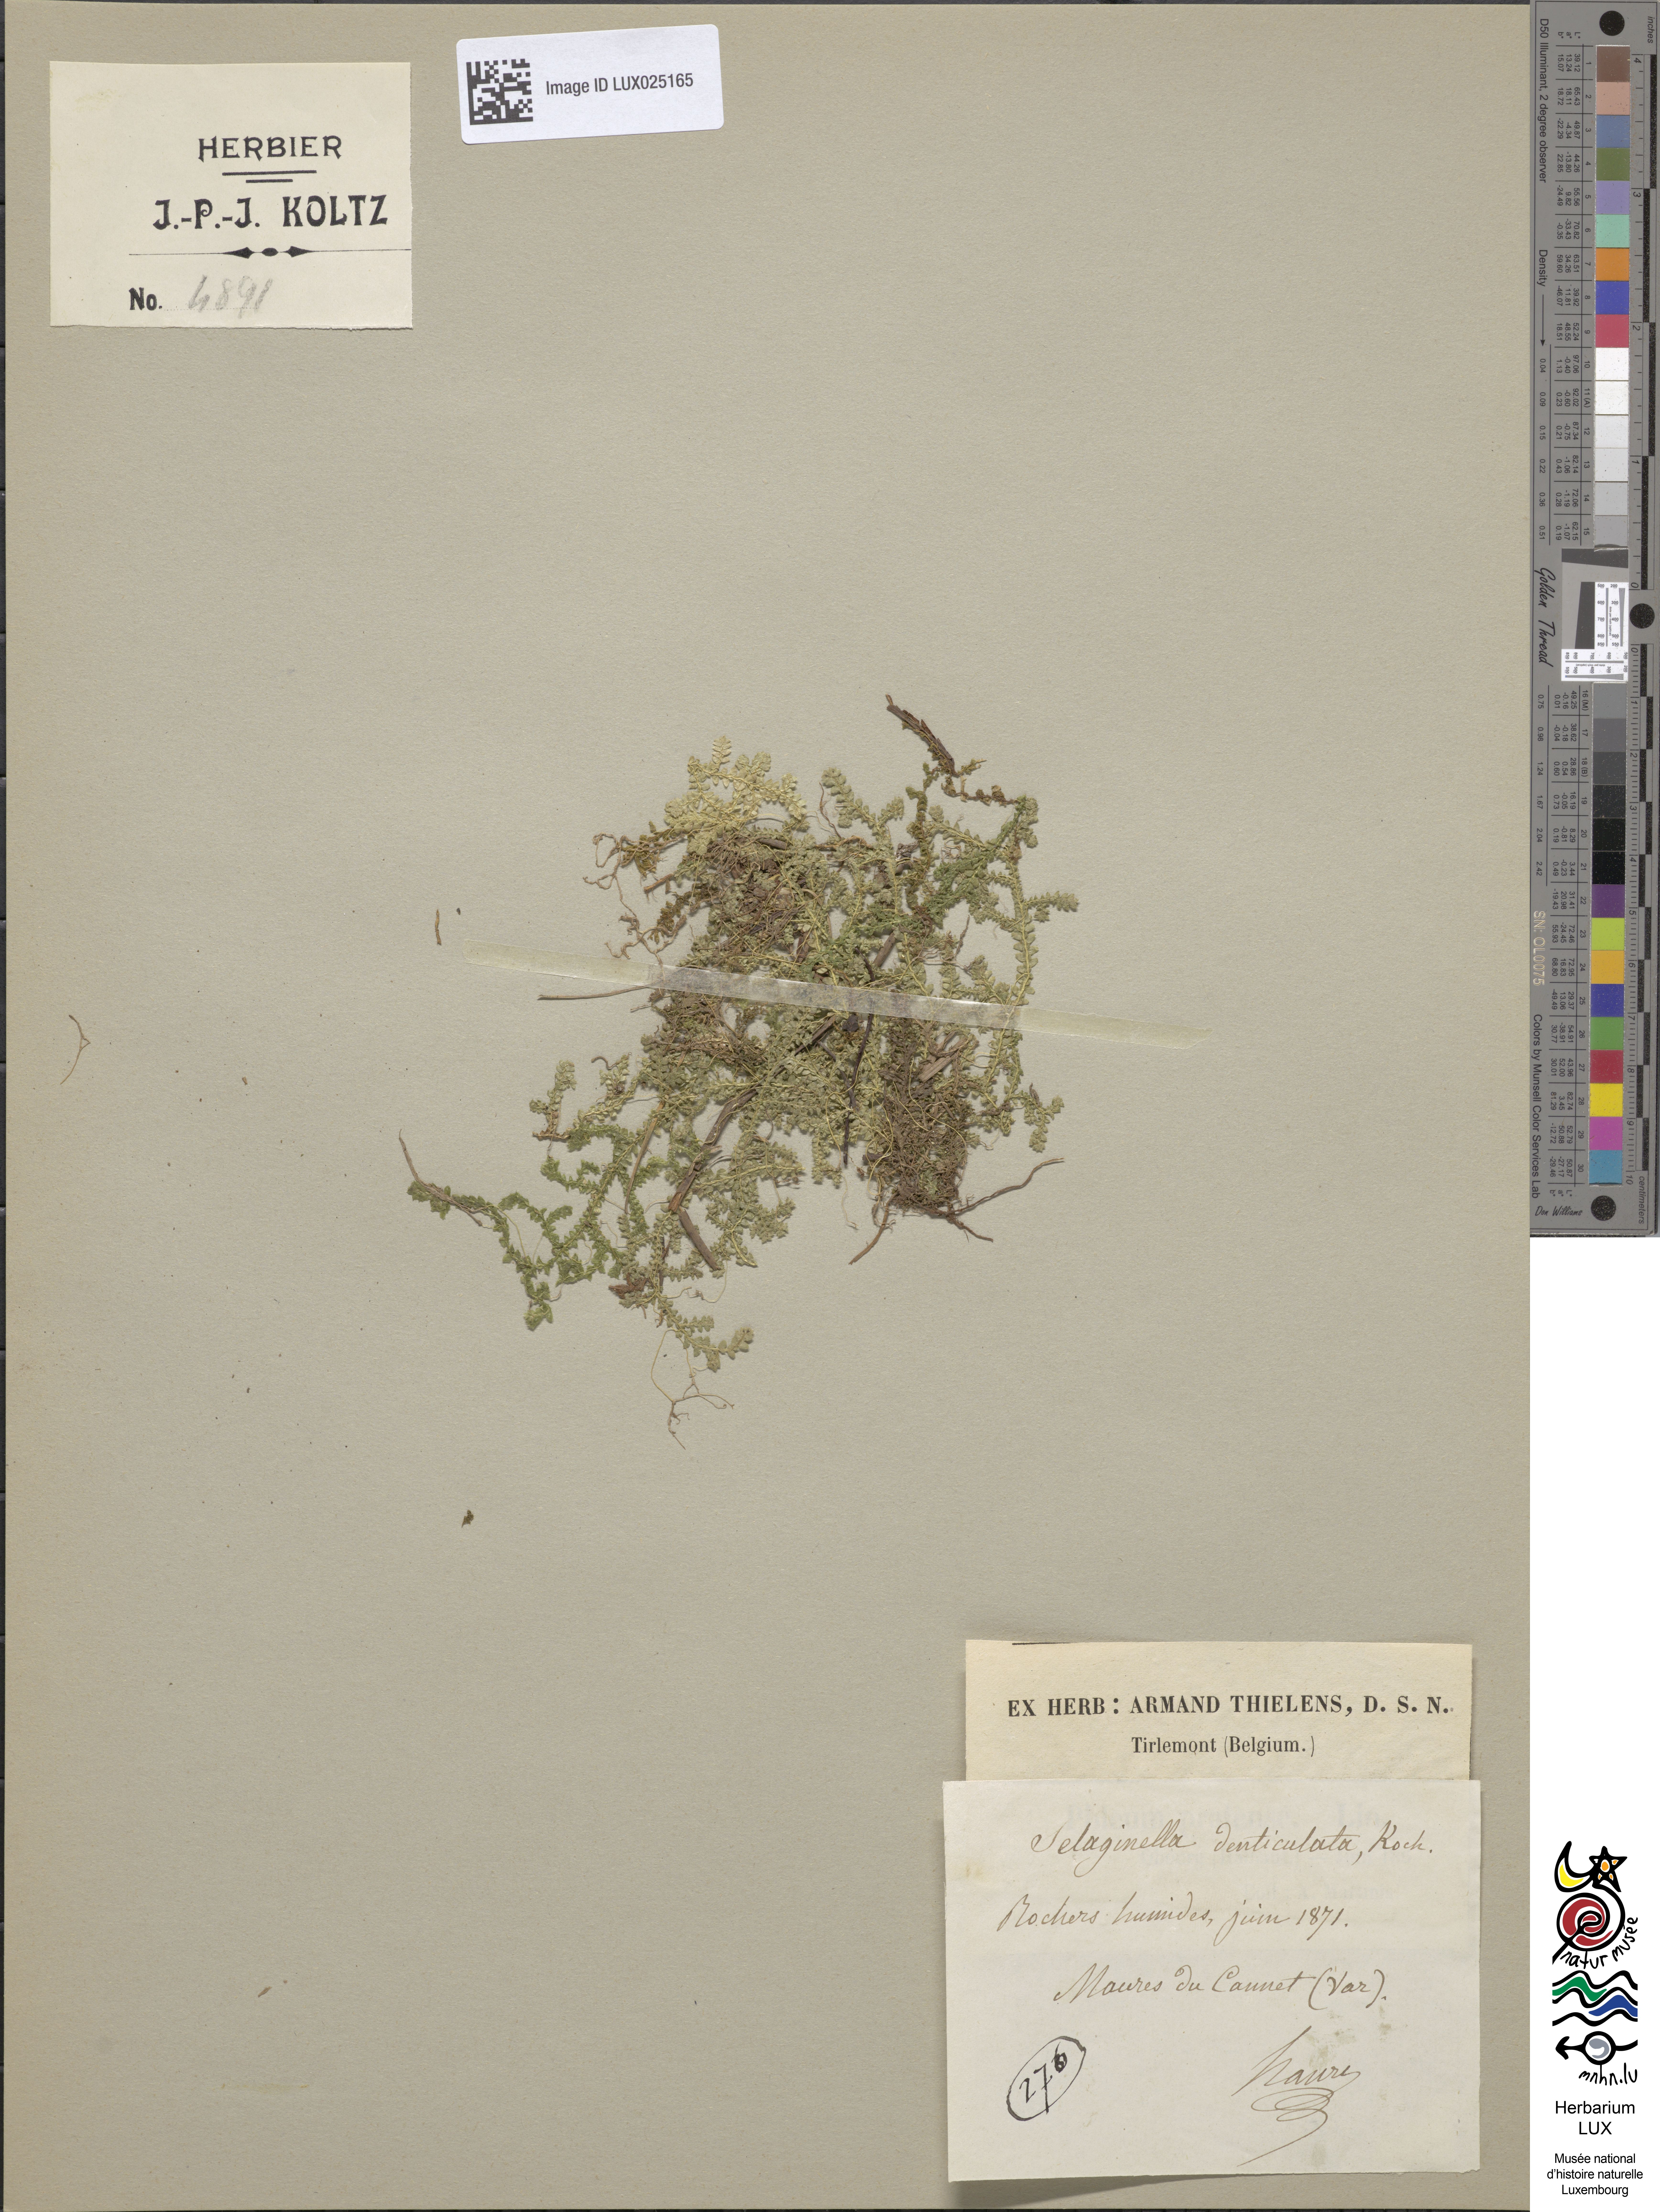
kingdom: Plantae
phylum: Tracheophyta
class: Lycopodiopsida
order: Selaginellales
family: Selaginellaceae
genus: Selaginella
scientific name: Selaginella denticulata
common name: Toothed-leaved clubmoss
